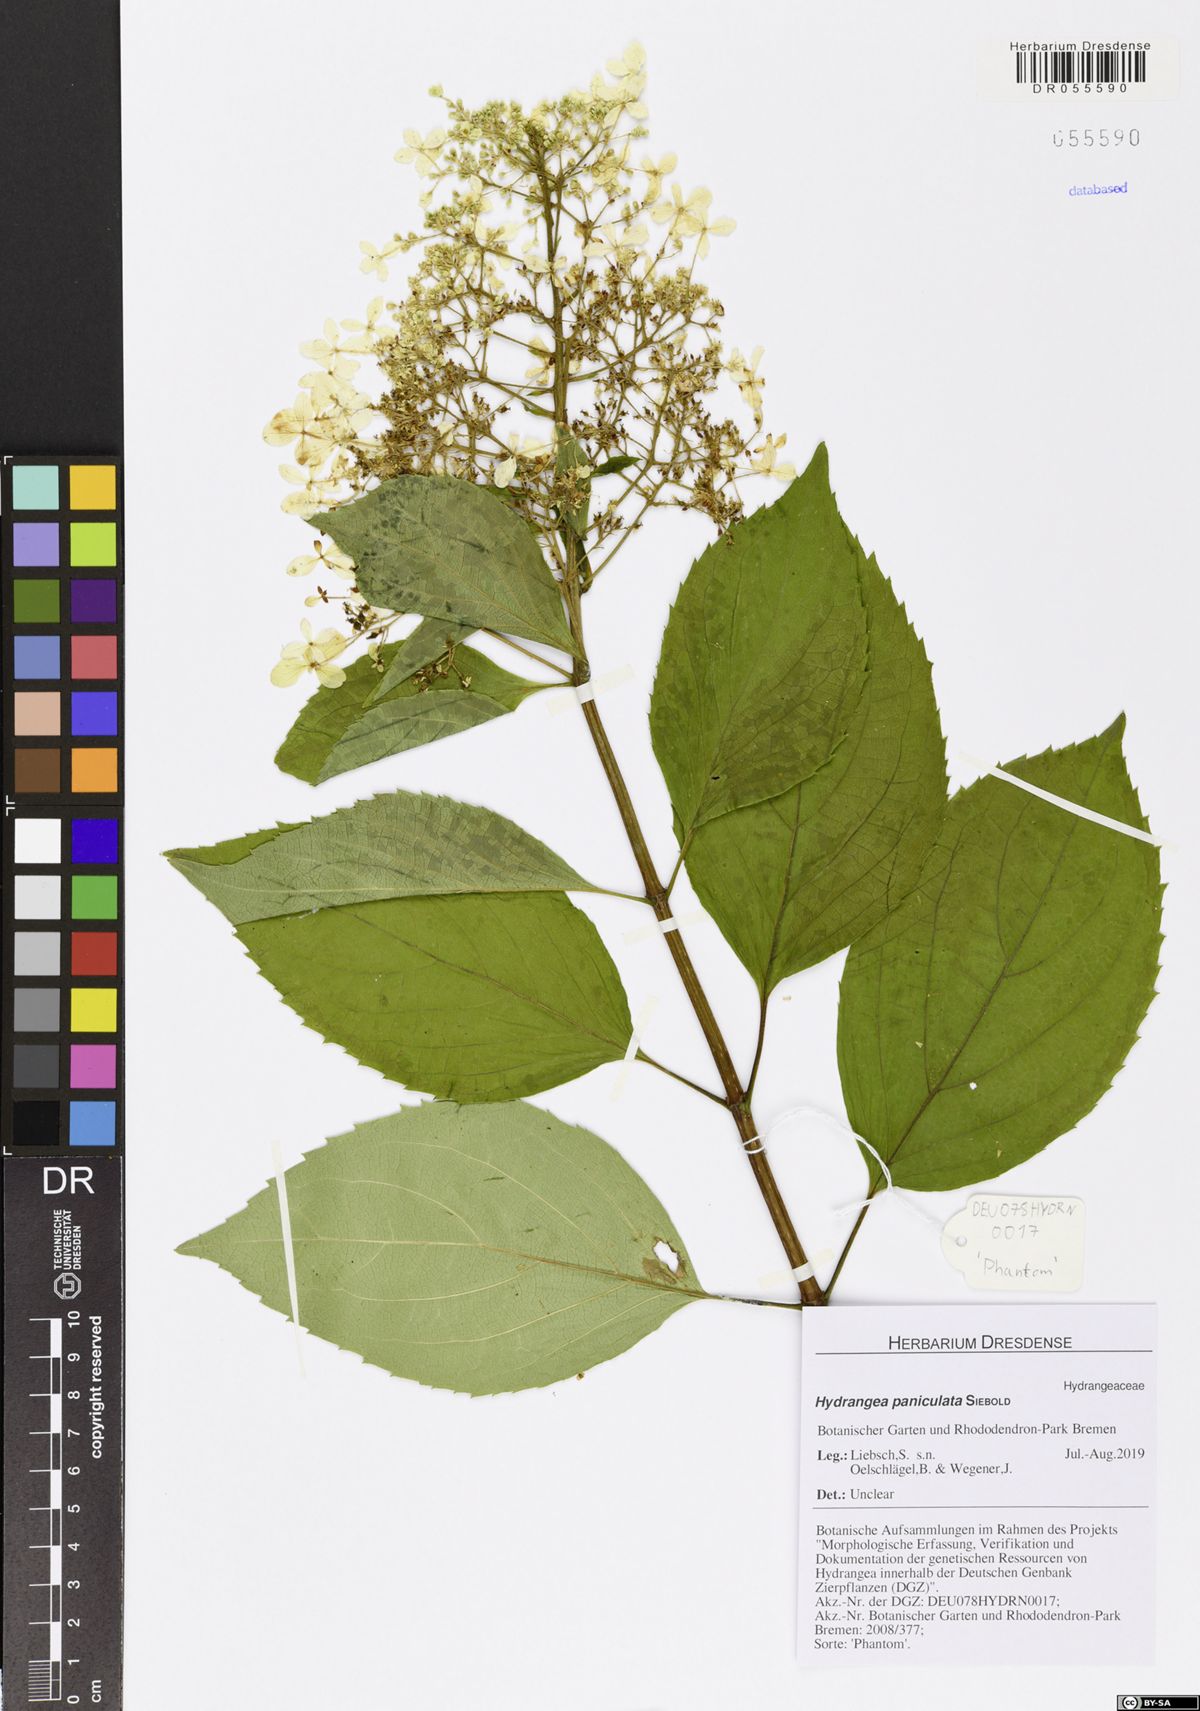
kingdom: Plantae
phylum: Tracheophyta
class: Magnoliopsida
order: Cornales
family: Hydrangeaceae
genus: Hydrangea
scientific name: Hydrangea paniculata
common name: Panicled hydrangea
